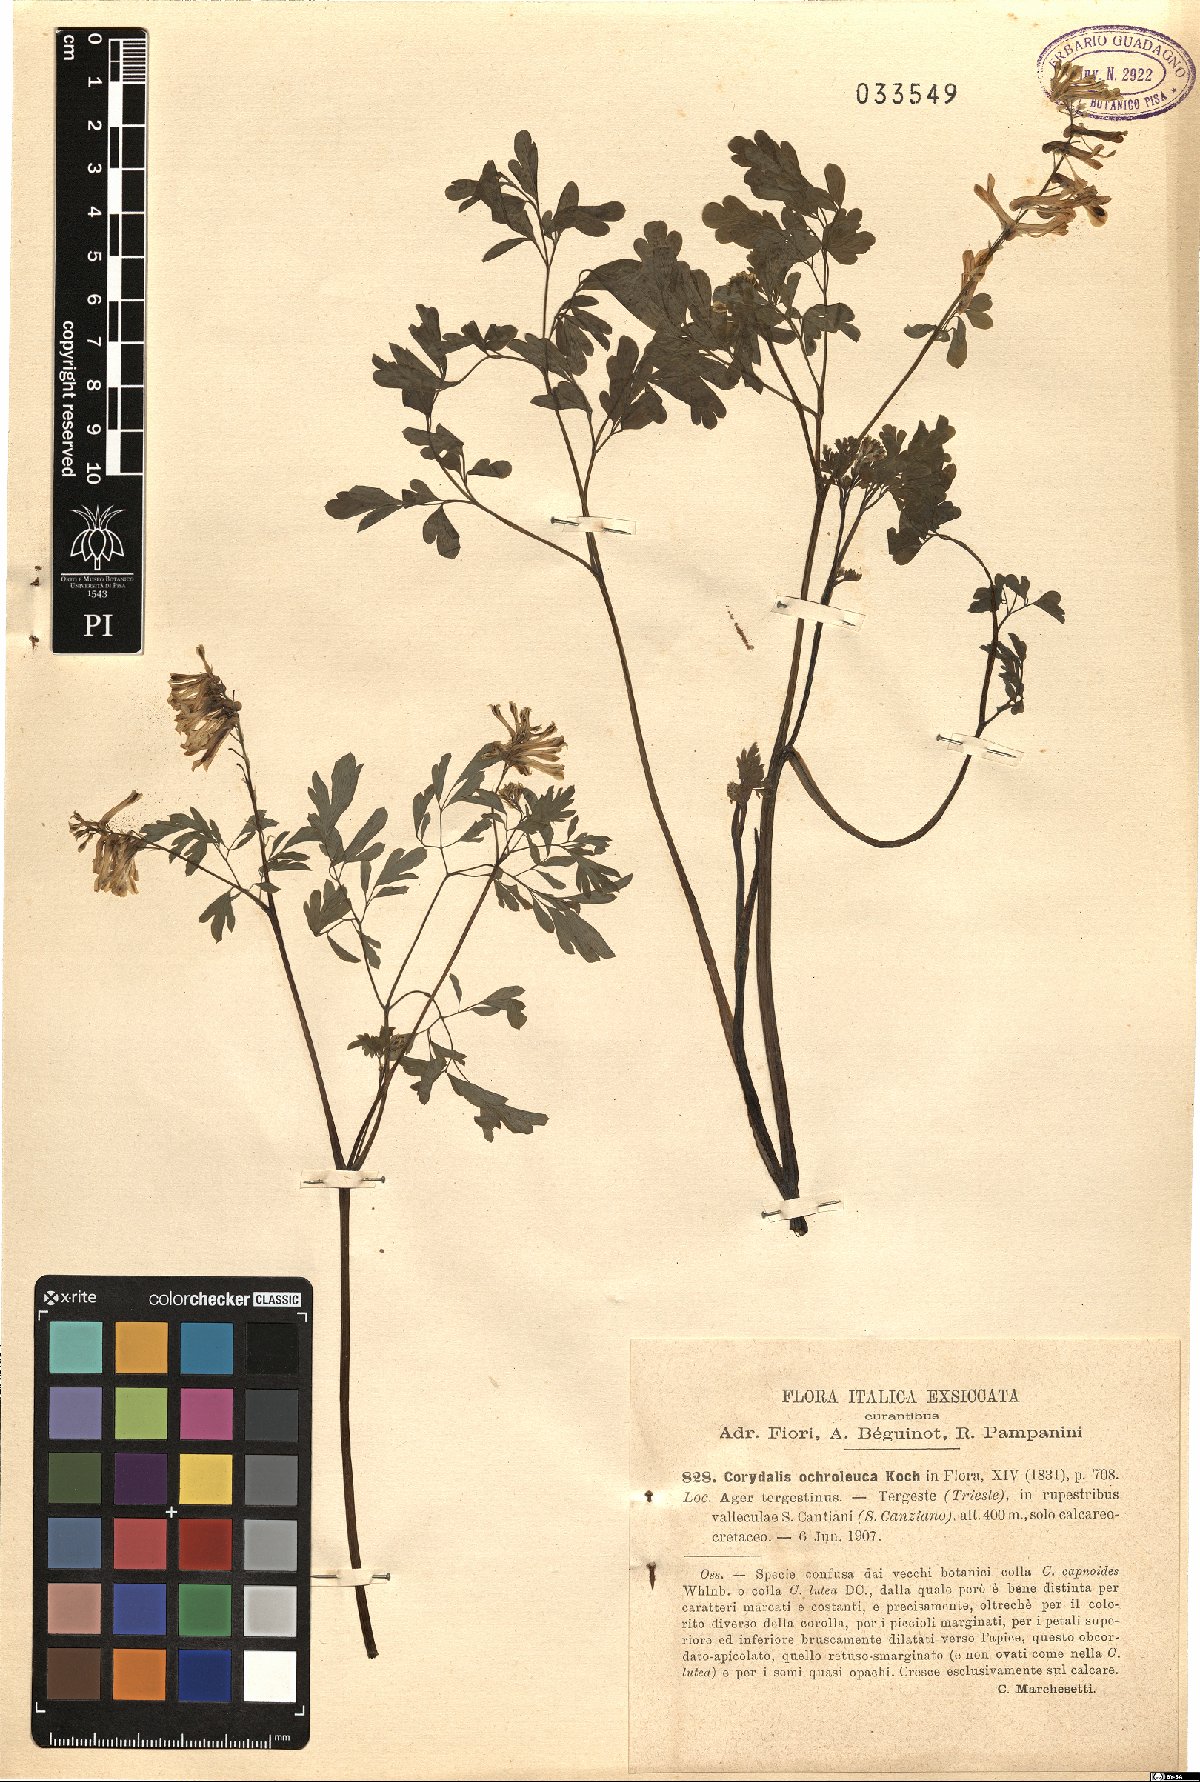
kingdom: Plantae
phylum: Tracheophyta
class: Magnoliopsida
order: Ranunculales
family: Papaveraceae
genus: Pseudofumaria
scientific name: Pseudofumaria alba
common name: Pale corydalis
